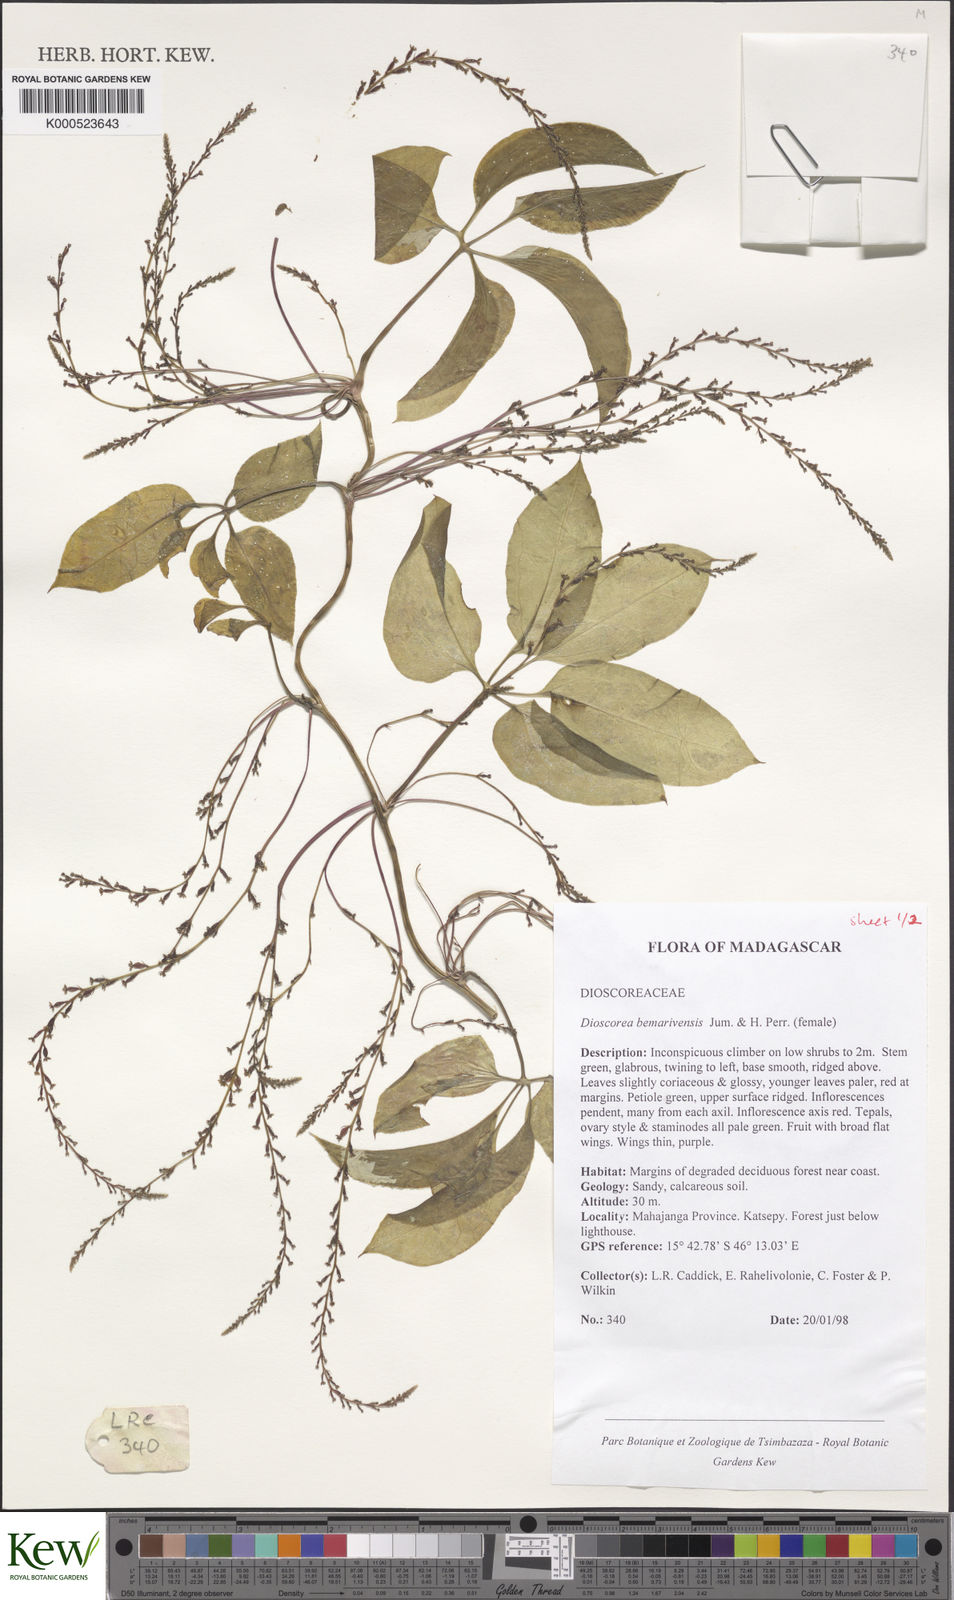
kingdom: Plantae
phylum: Tracheophyta
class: Liliopsida
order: Dioscoreales
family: Dioscoreaceae
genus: Dioscorea
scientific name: Dioscorea bemarivensis
